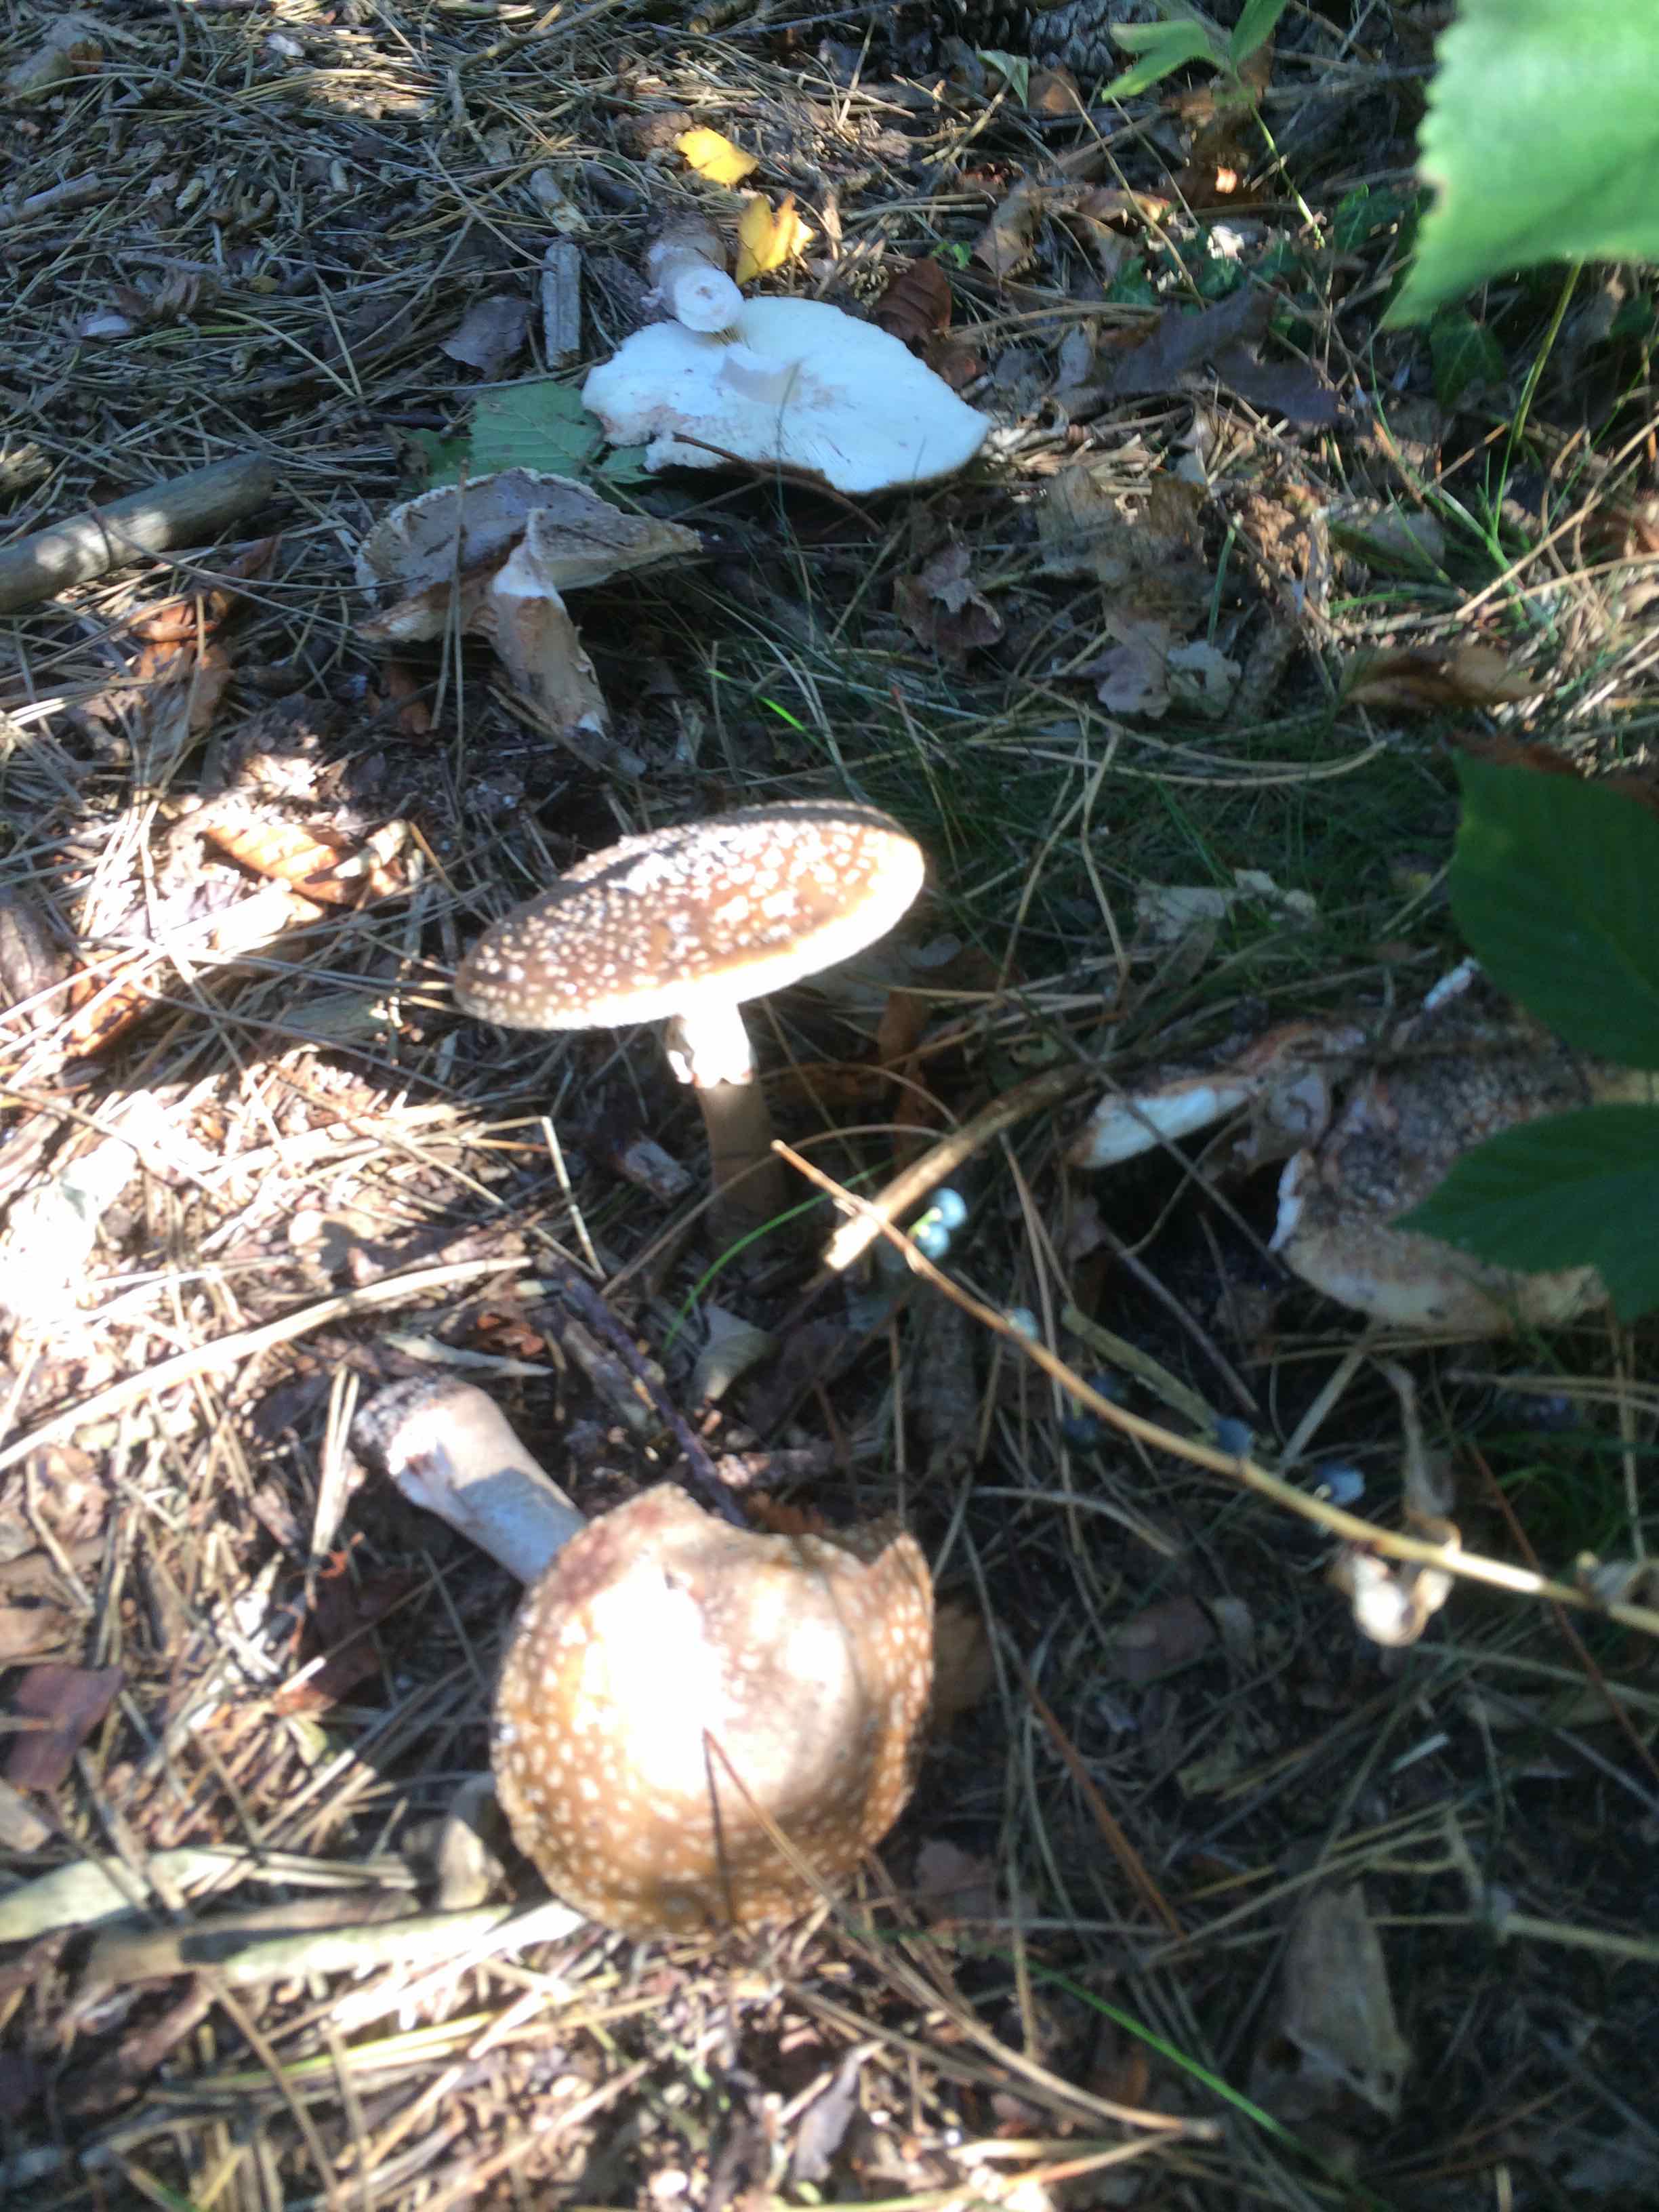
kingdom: Fungi
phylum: Basidiomycota
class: Agaricomycetes
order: Agaricales
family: Amanitaceae
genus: Amanita
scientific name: Amanita
